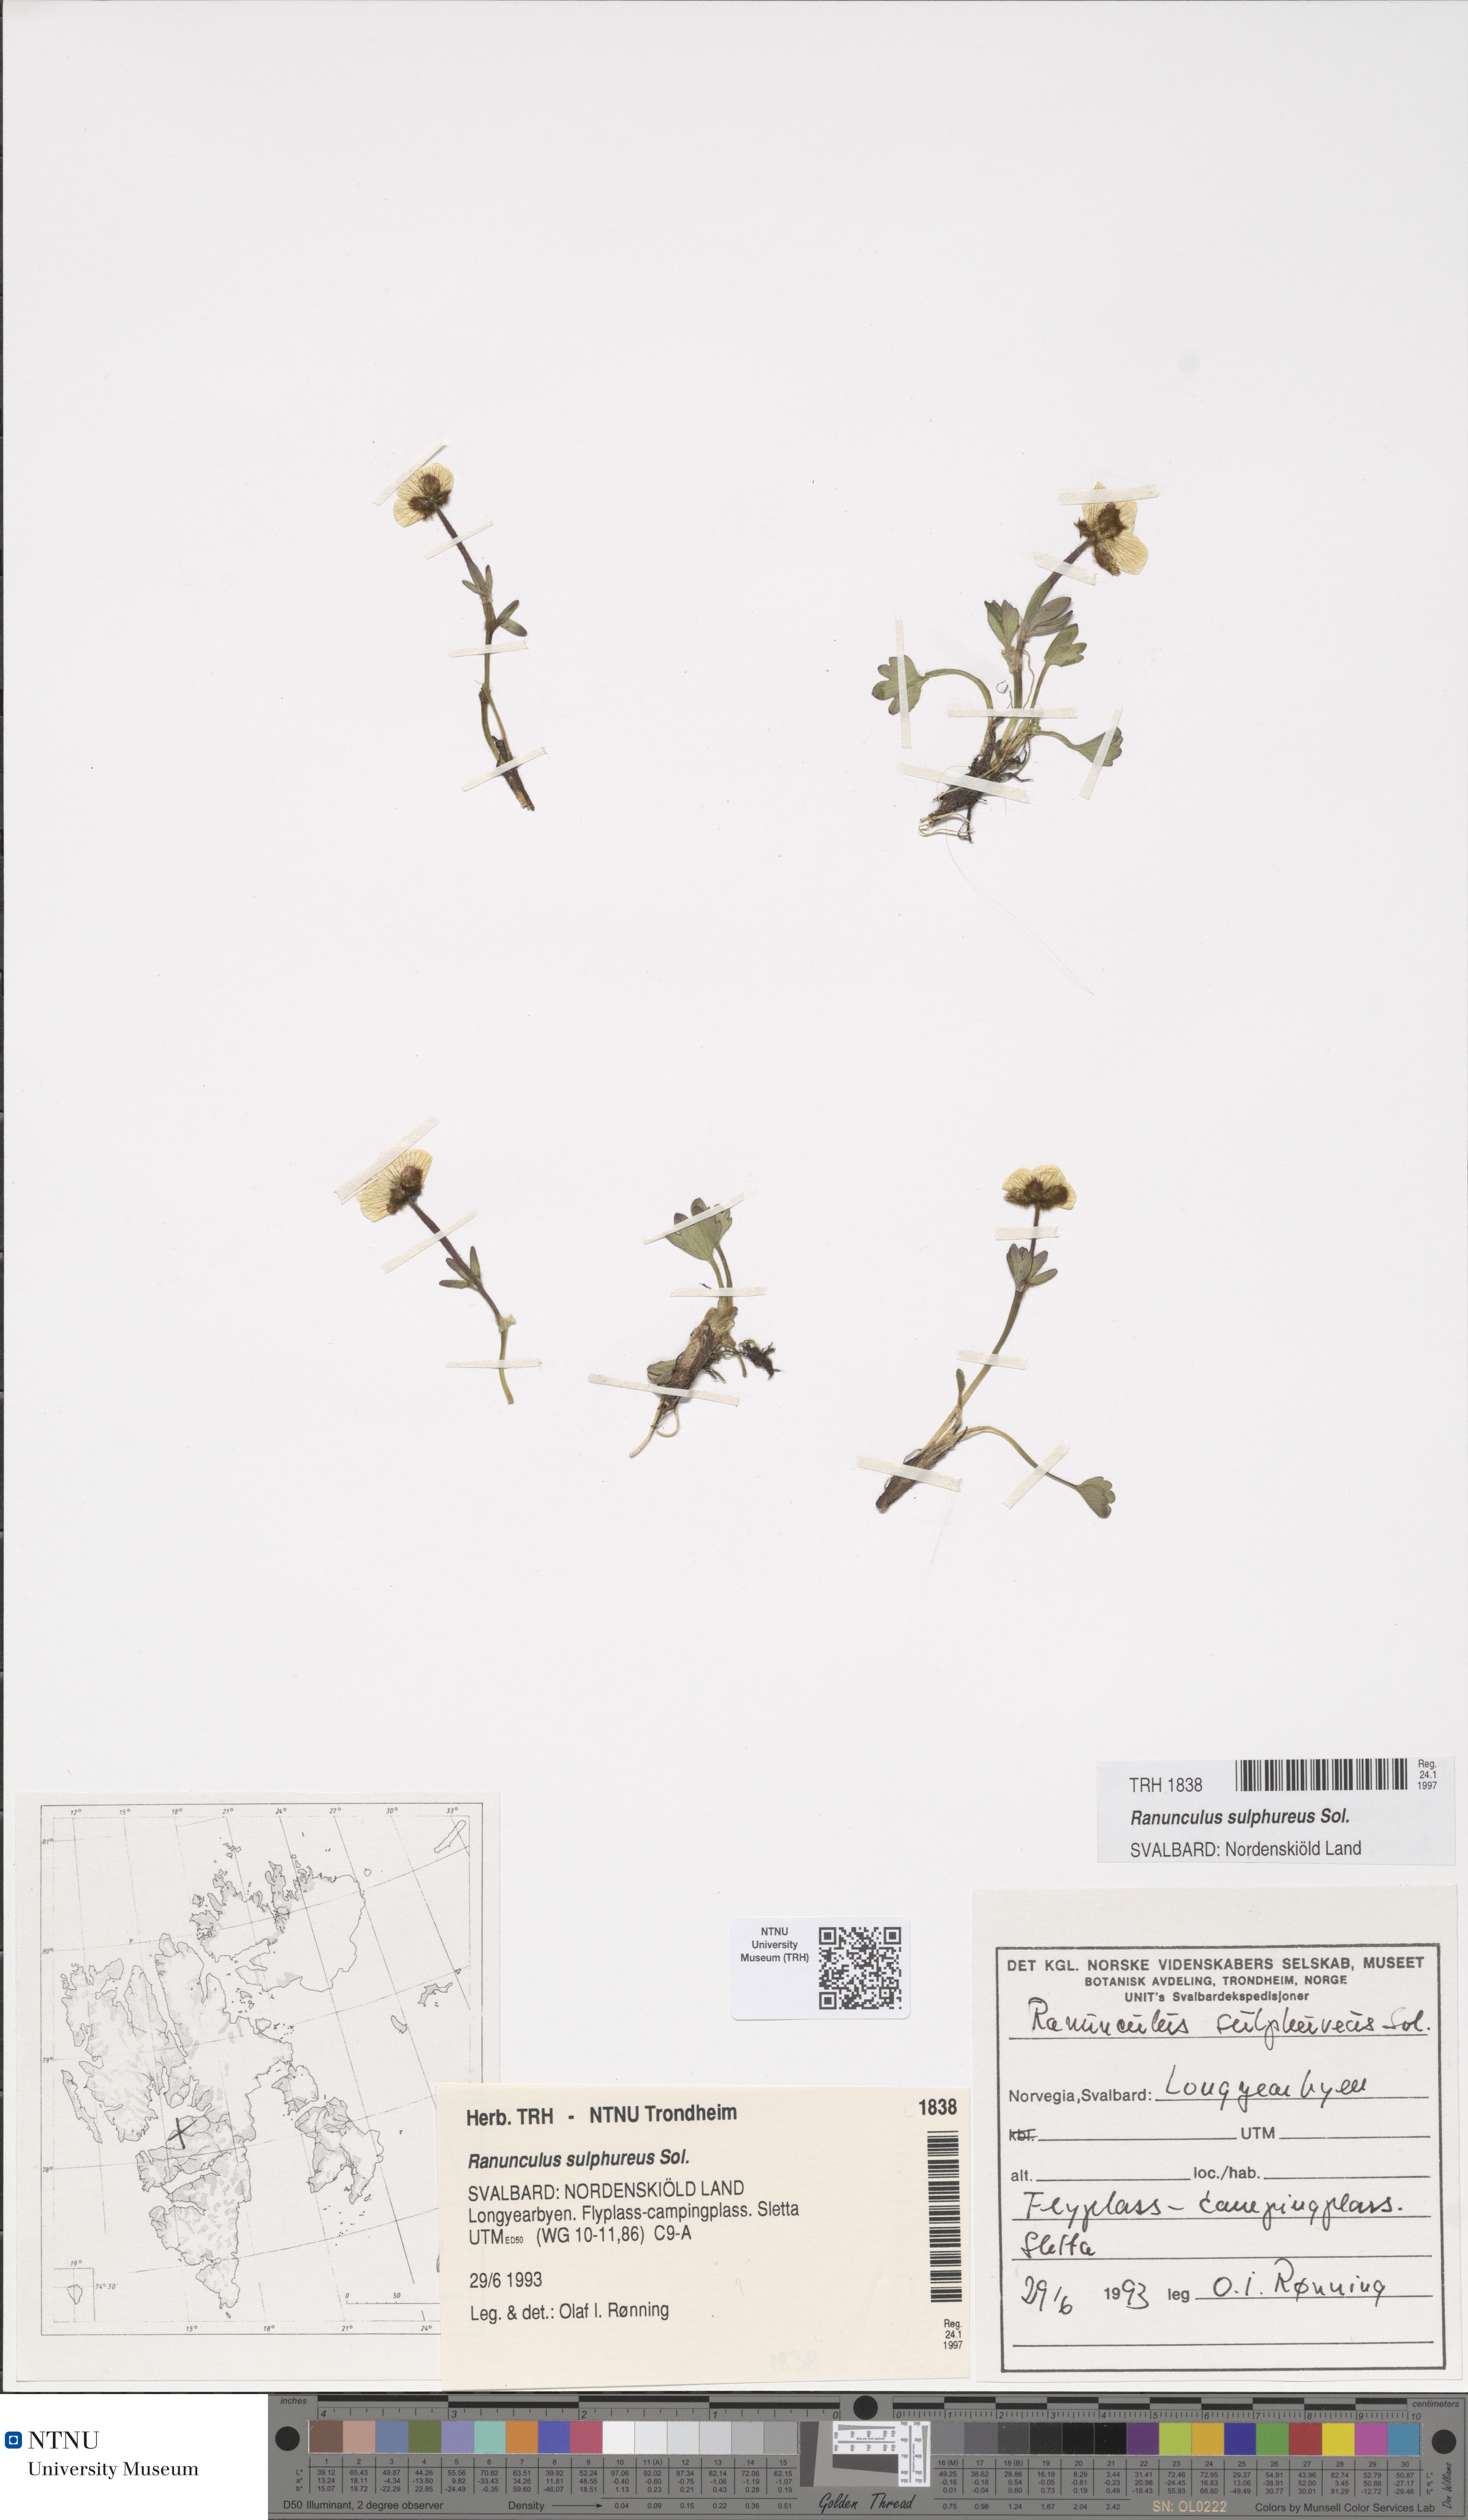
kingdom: Plantae
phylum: Tracheophyta
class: Magnoliopsida
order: Ranunculales
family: Ranunculaceae
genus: Ranunculus
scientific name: Ranunculus sulphureus
